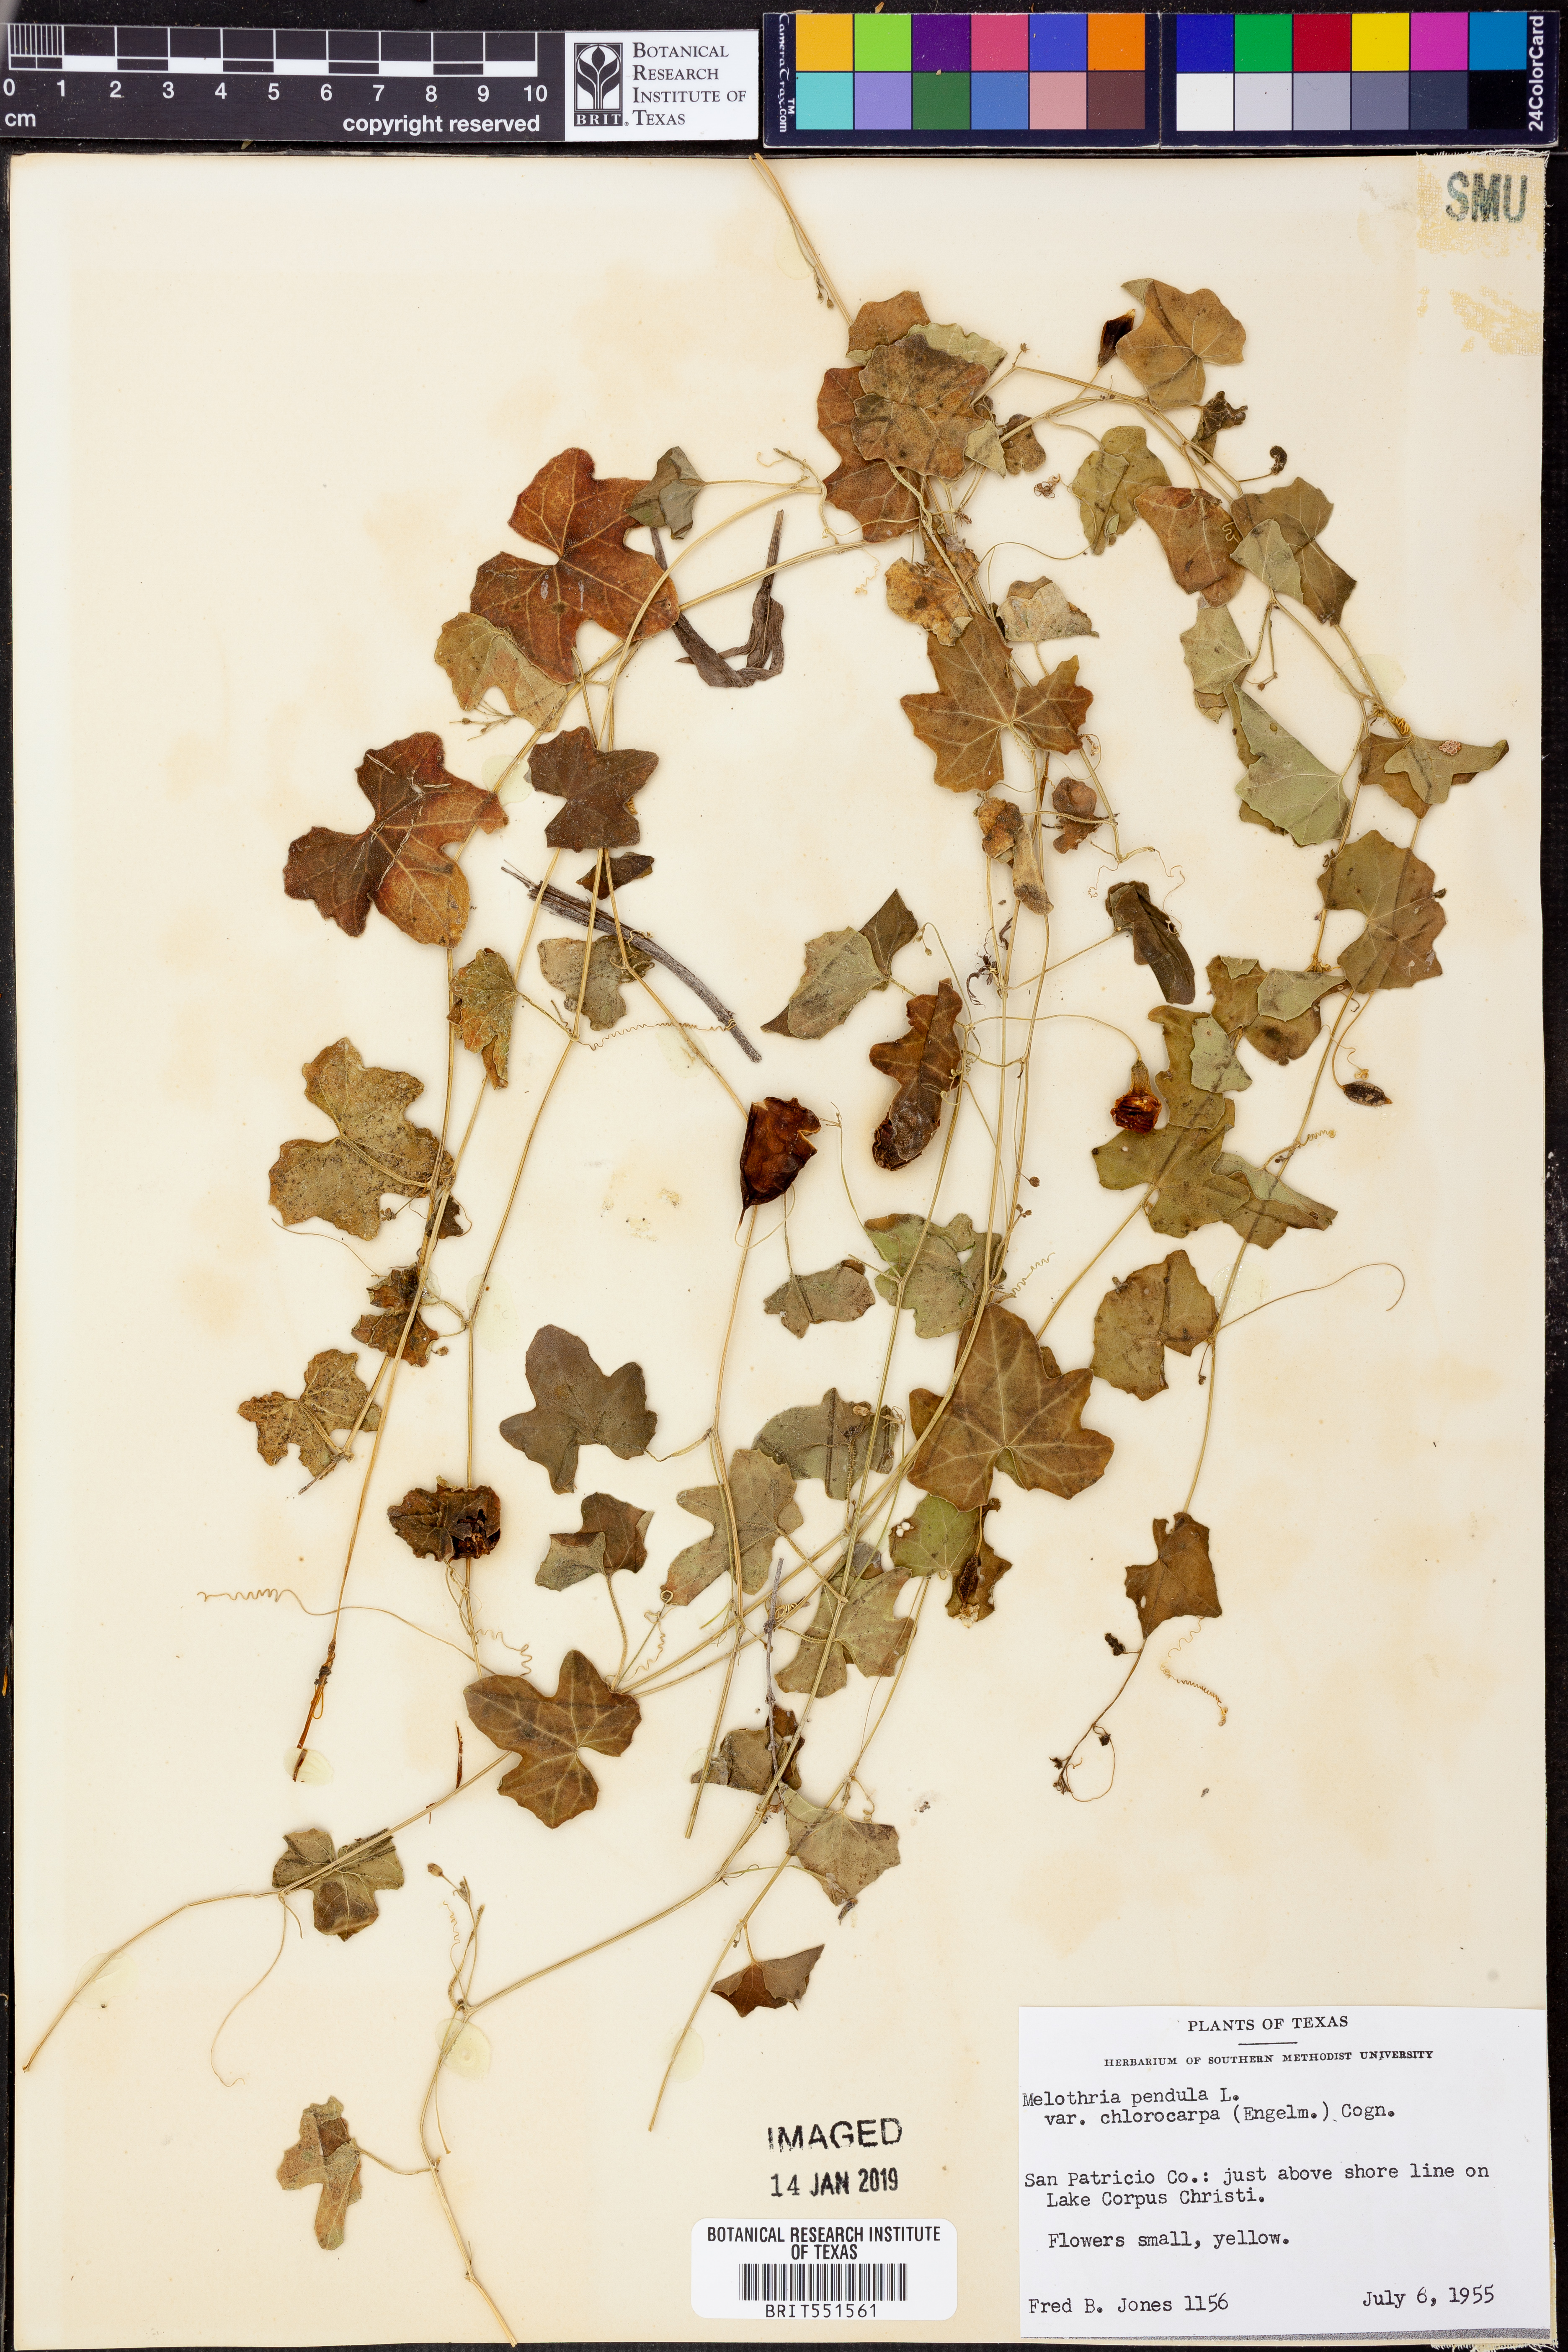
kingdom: Plantae
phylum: Tracheophyta
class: Magnoliopsida
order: Cucurbitales
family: Cucurbitaceae
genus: Melothria
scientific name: Melothria pendula
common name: Creeping-cucumber
